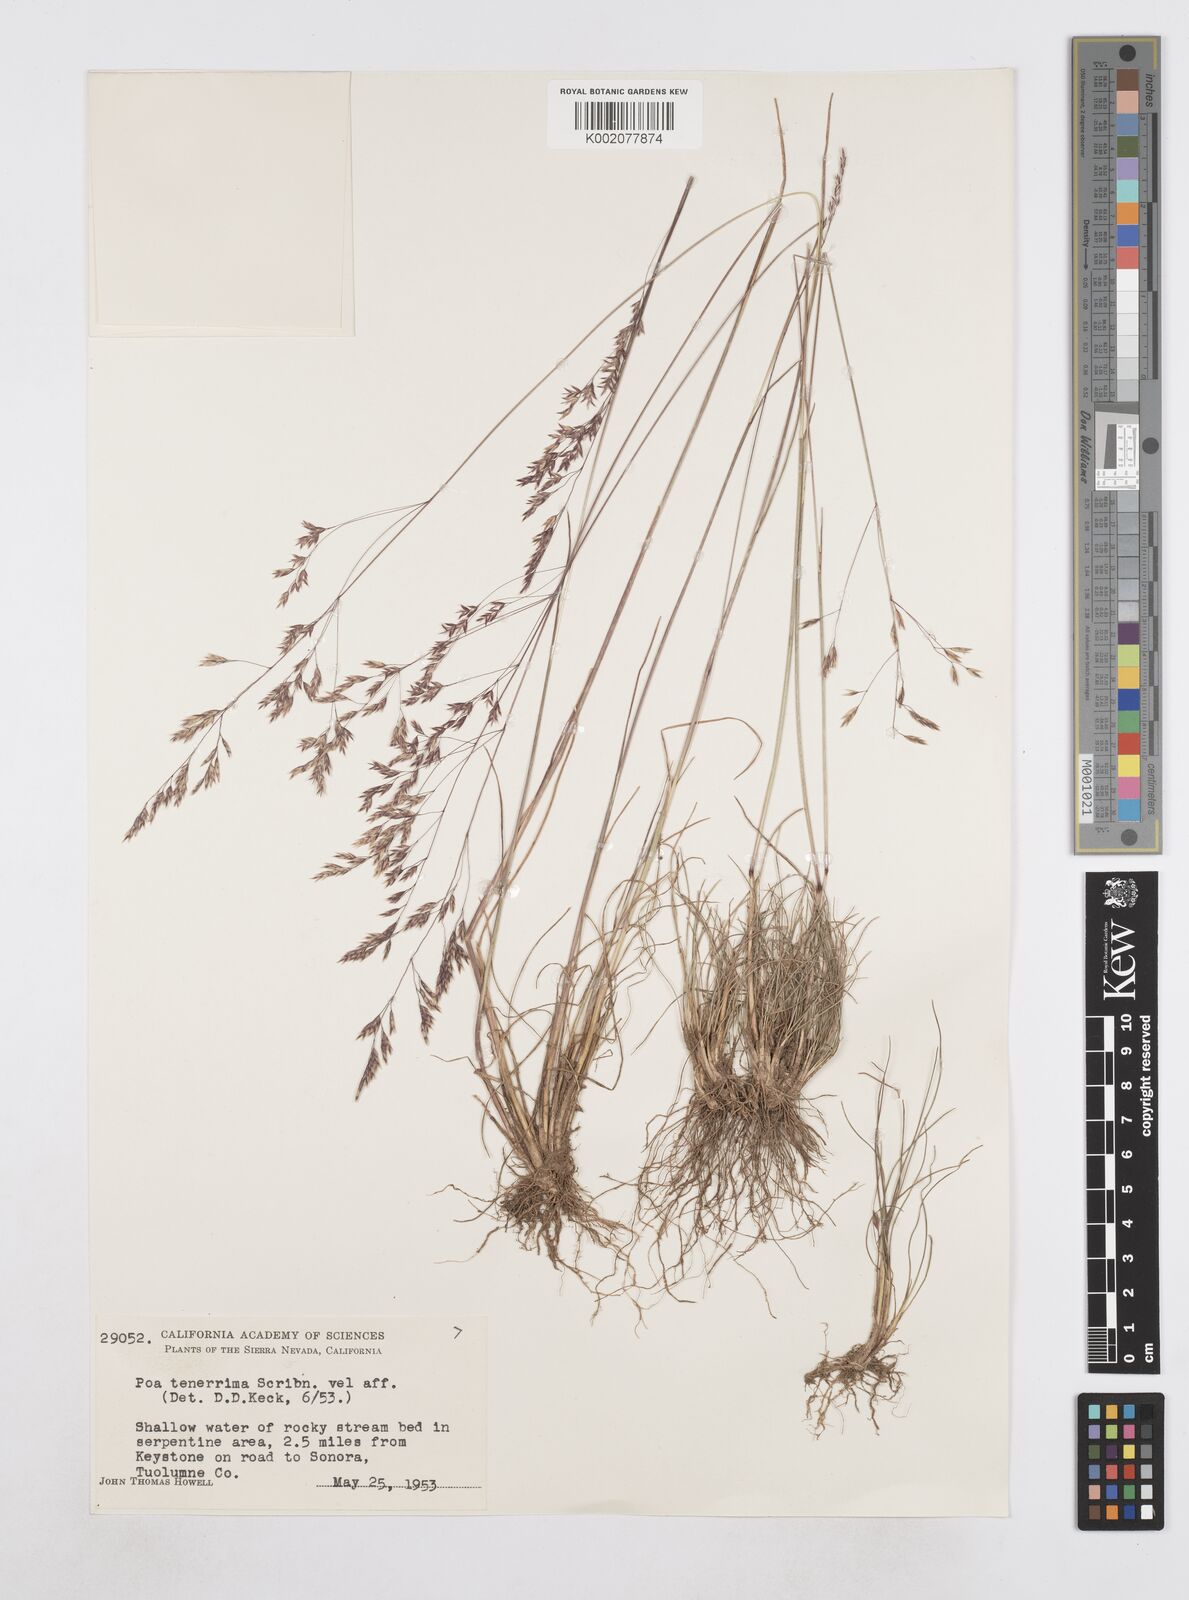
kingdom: Plantae
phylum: Tracheophyta
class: Liliopsida
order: Poales
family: Poaceae
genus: Poa
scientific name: Poa tenerrima
